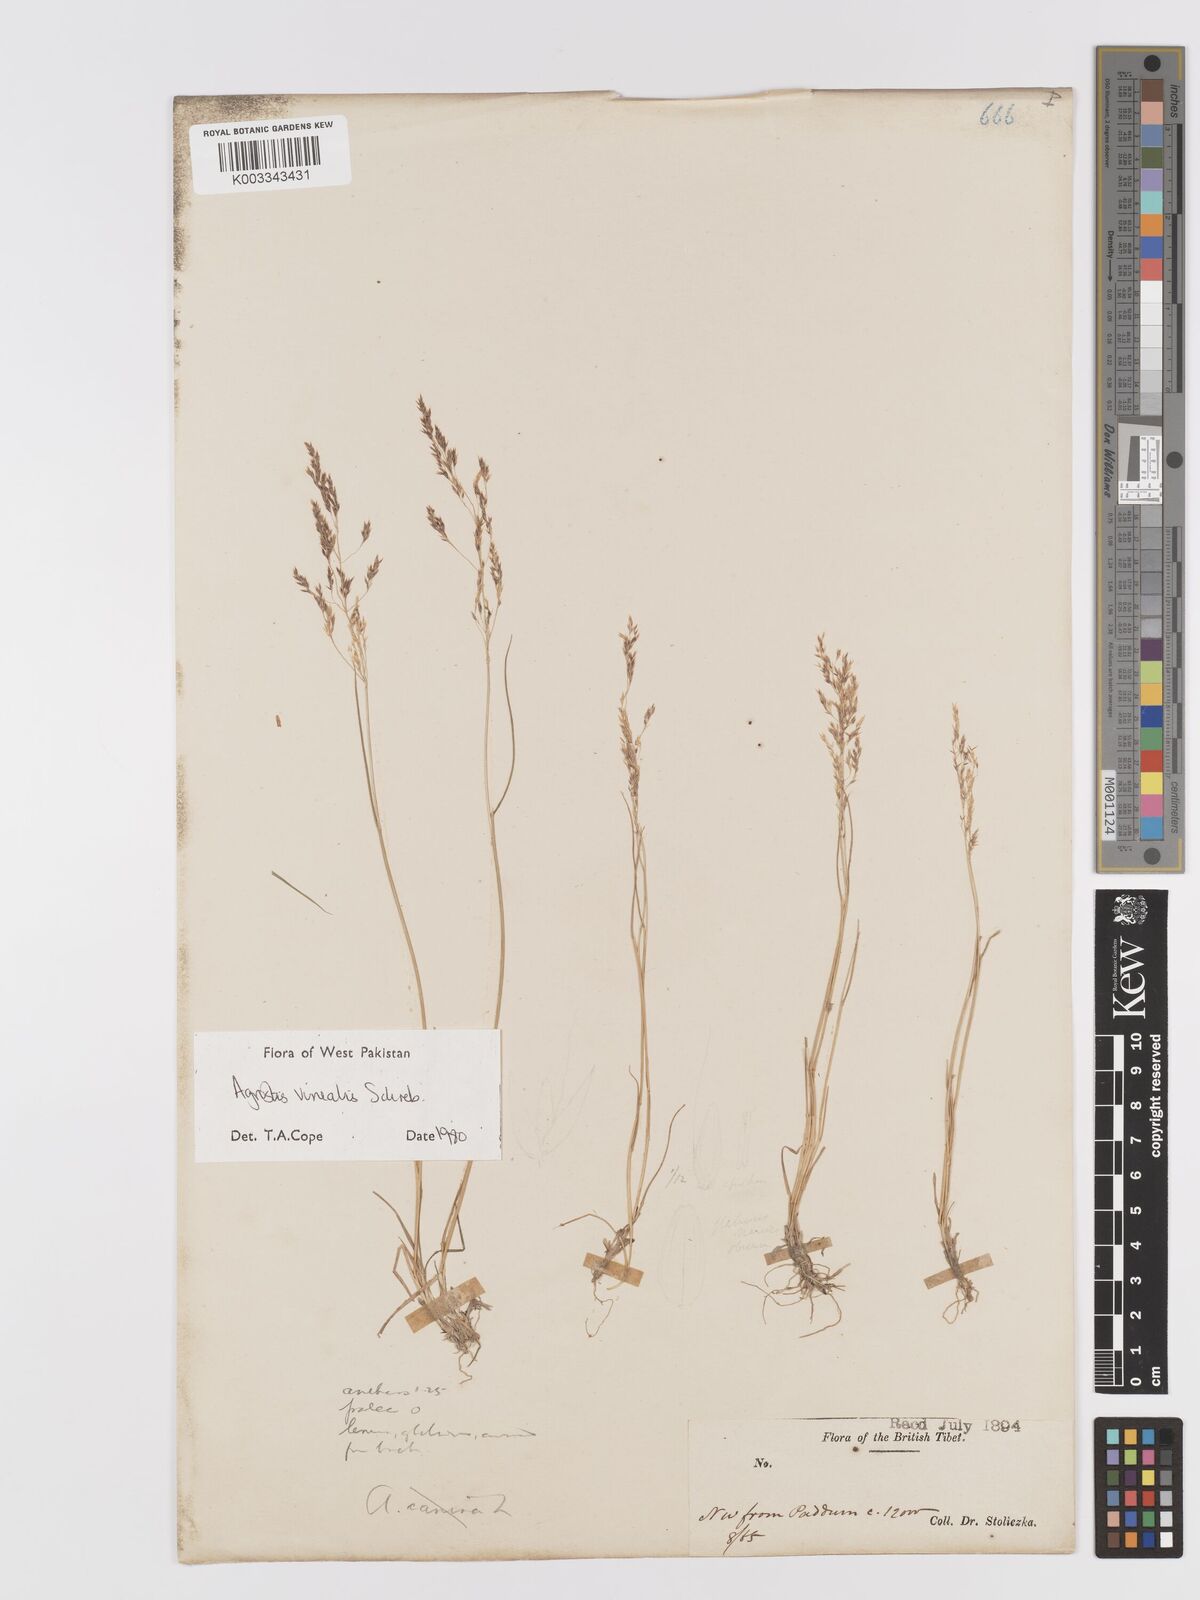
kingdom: Plantae
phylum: Tracheophyta
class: Liliopsida
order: Poales
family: Poaceae
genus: Agrostis
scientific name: Agrostis vinealis
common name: Brown bent
